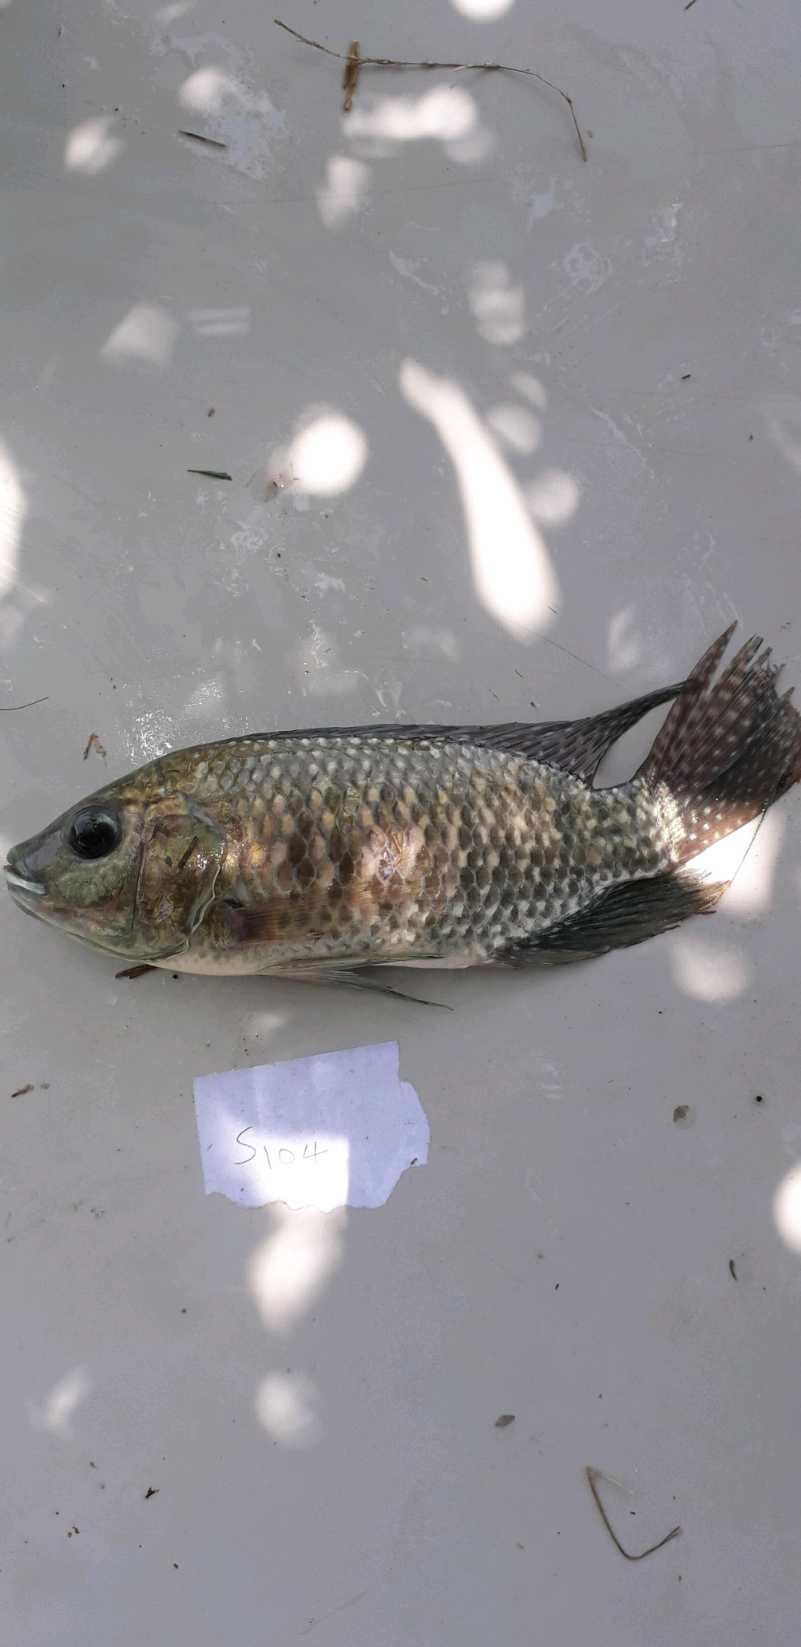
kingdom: Animalia
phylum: Chordata
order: Perciformes
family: Cichlidae
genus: Oreochromis
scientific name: Oreochromis leucostictus
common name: Blue spotted tilapia
